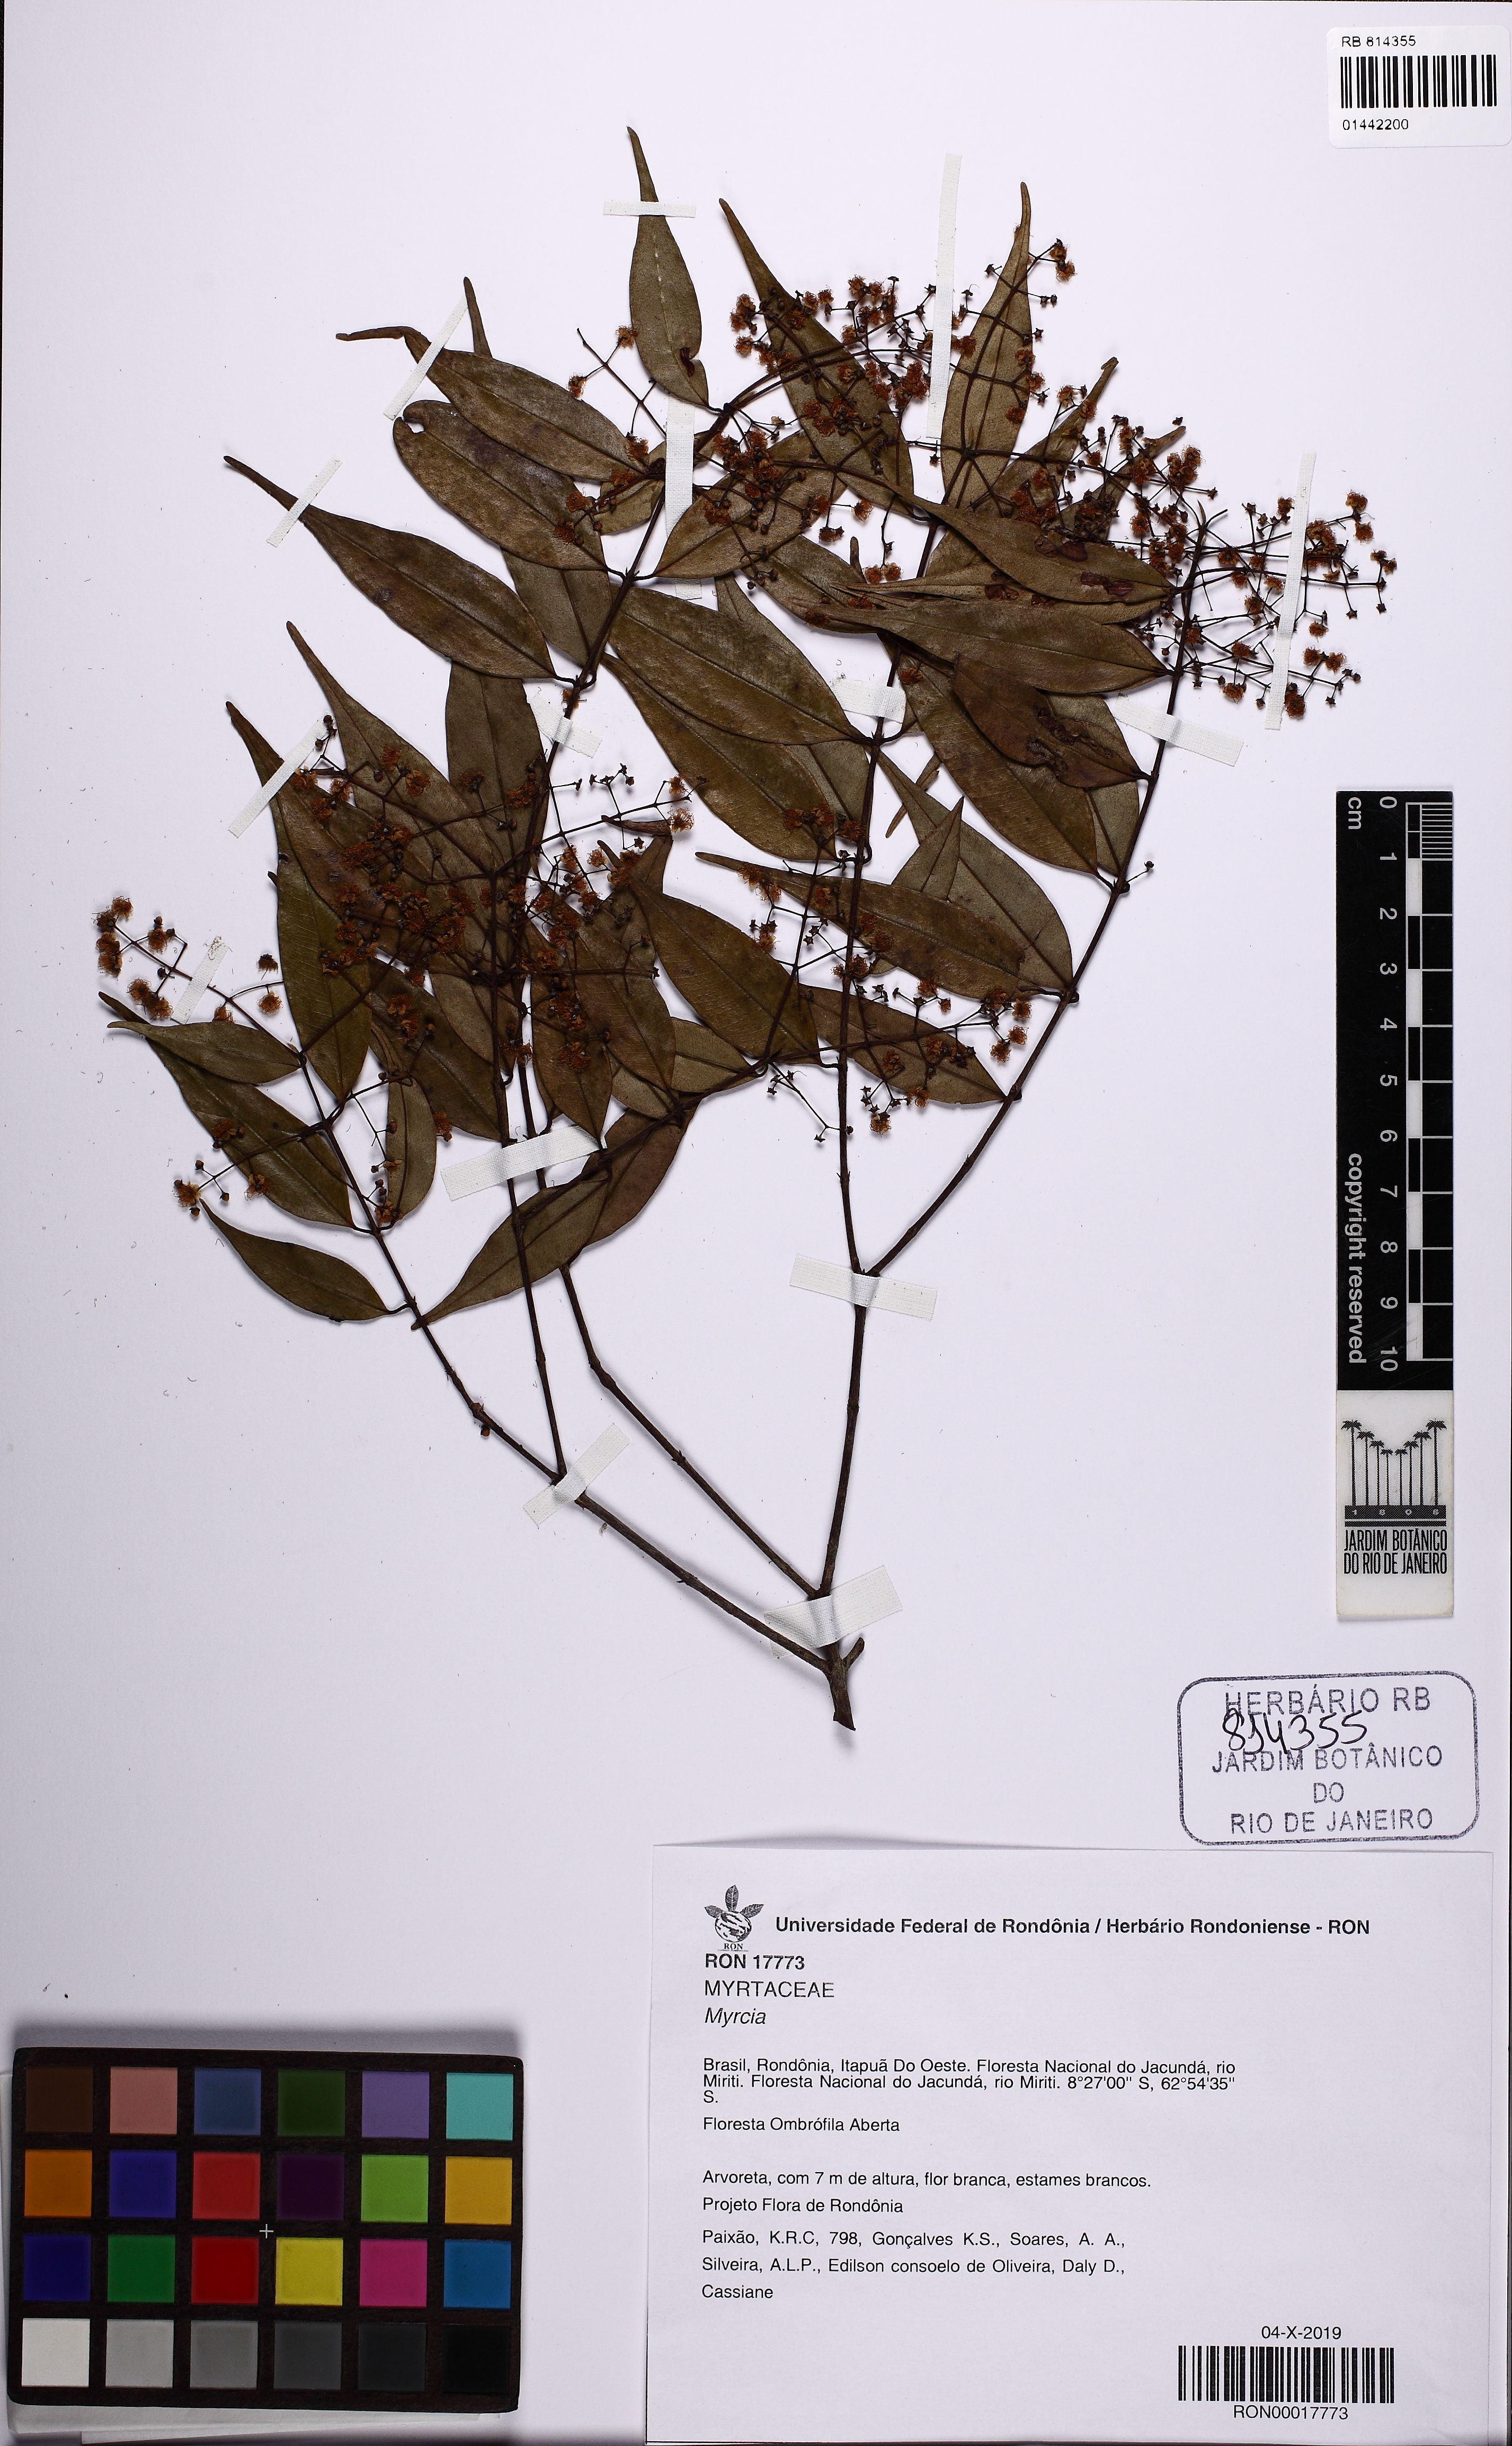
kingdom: Plantae
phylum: Tracheophyta
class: Magnoliopsida
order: Myrtales
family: Myrtaceae
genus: Myrcia
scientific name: Myrcia
